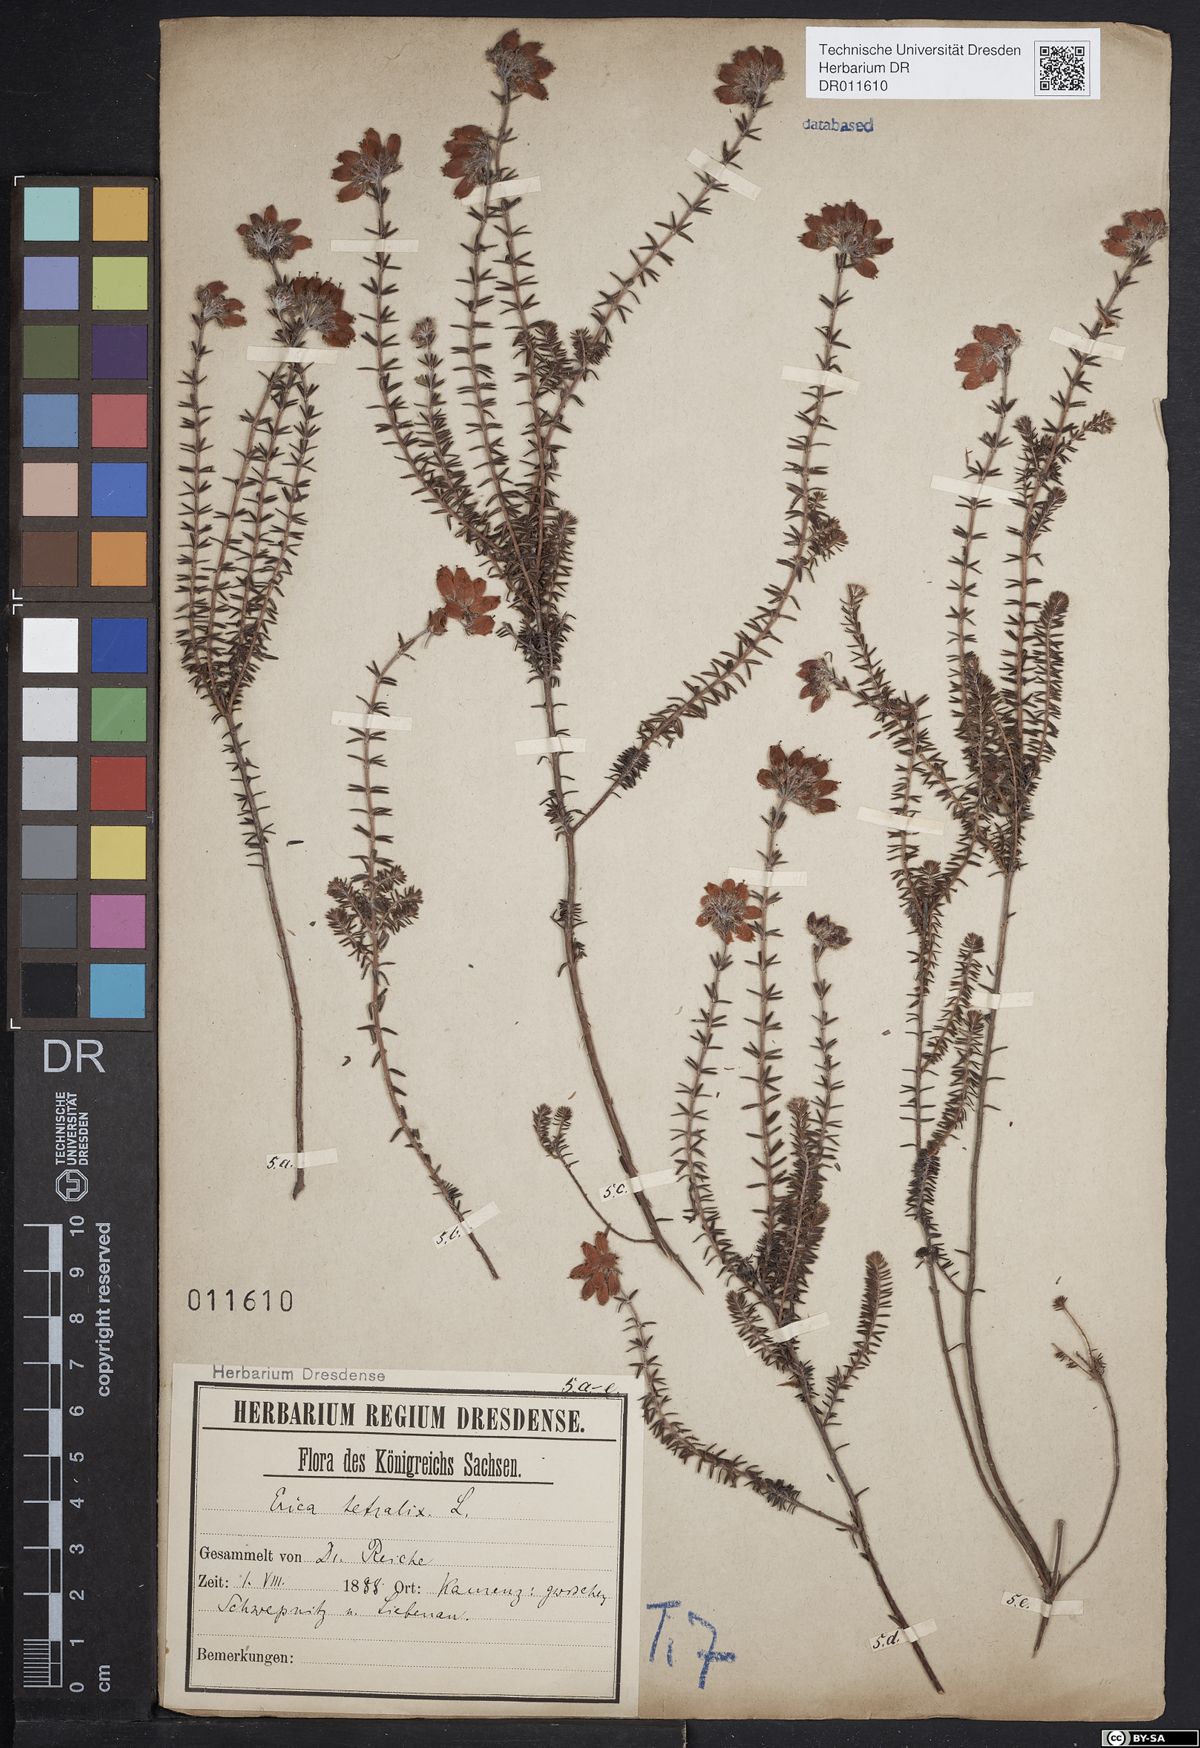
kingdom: Plantae
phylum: Tracheophyta
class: Magnoliopsida
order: Ericales
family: Ericaceae
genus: Erica
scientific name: Erica tetralix
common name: Cross-leaved heath
